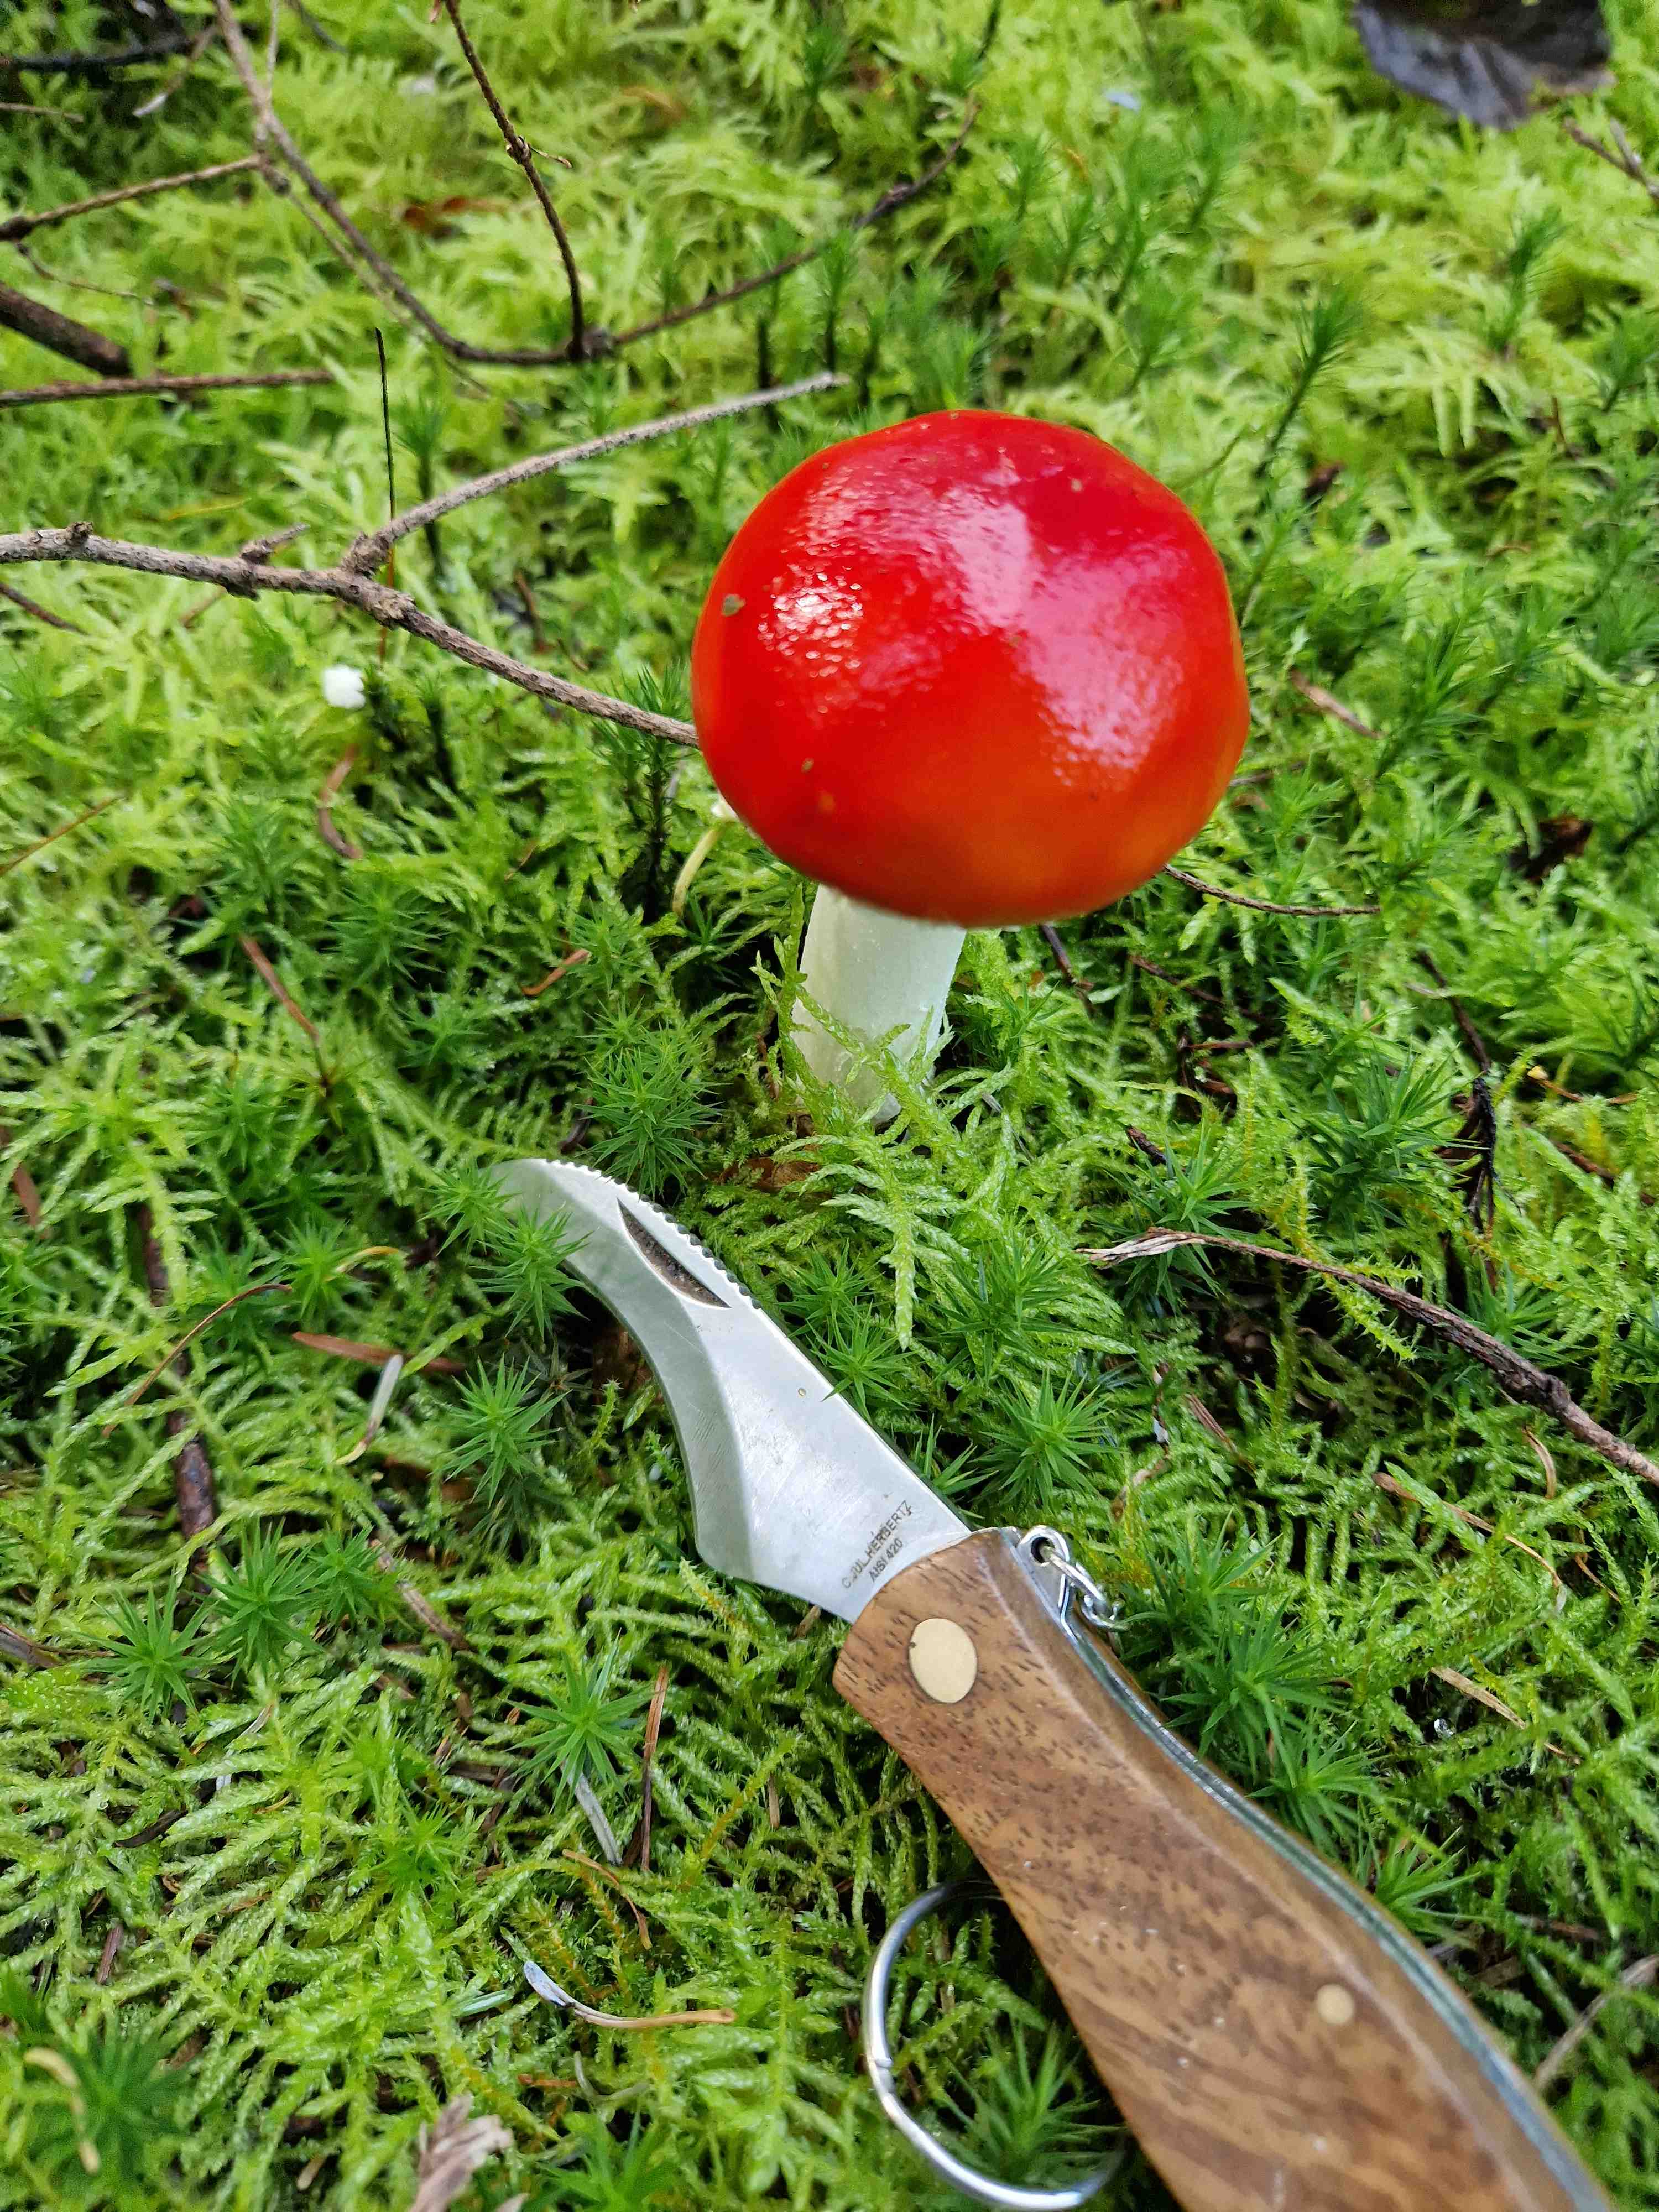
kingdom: Fungi
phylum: Basidiomycota
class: Agaricomycetes
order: Agaricales
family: Amanitaceae
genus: Amanita
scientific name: Amanita muscaria
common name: rød fluesvamp
